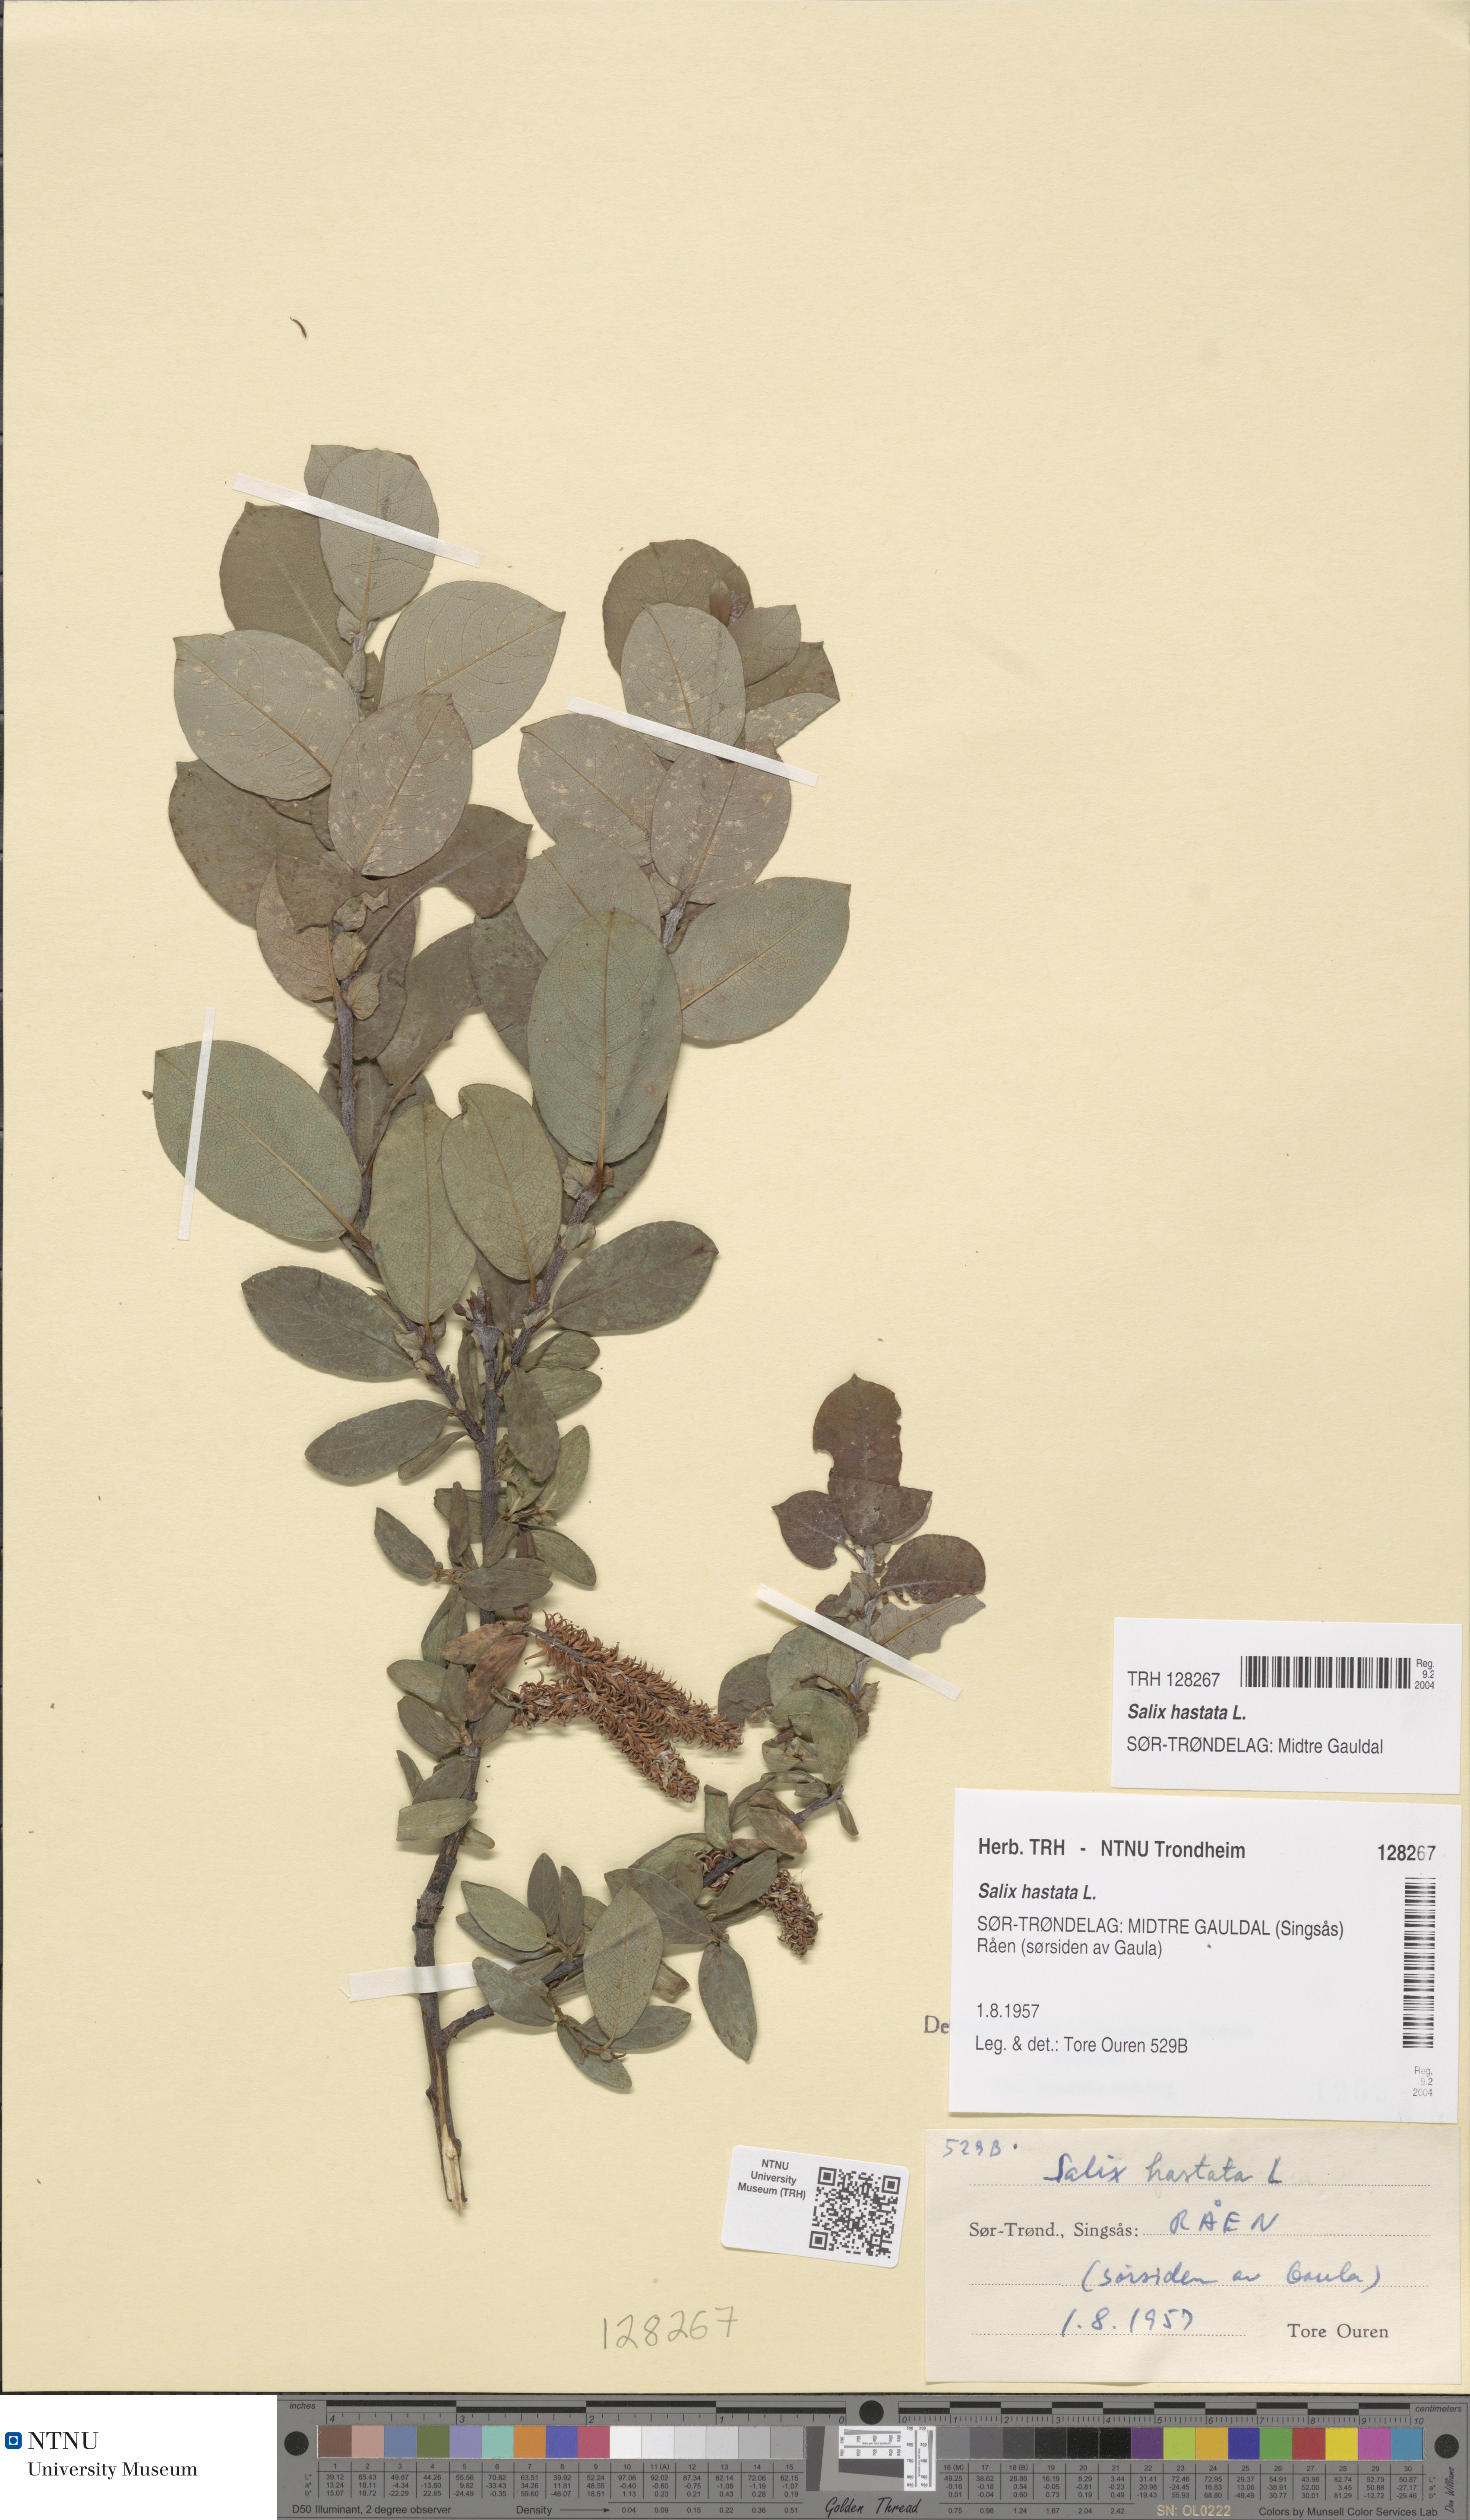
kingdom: Plantae
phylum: Tracheophyta
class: Magnoliopsida
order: Malpighiales
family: Salicaceae
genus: Salix
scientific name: Salix hastata
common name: Halberd willow
